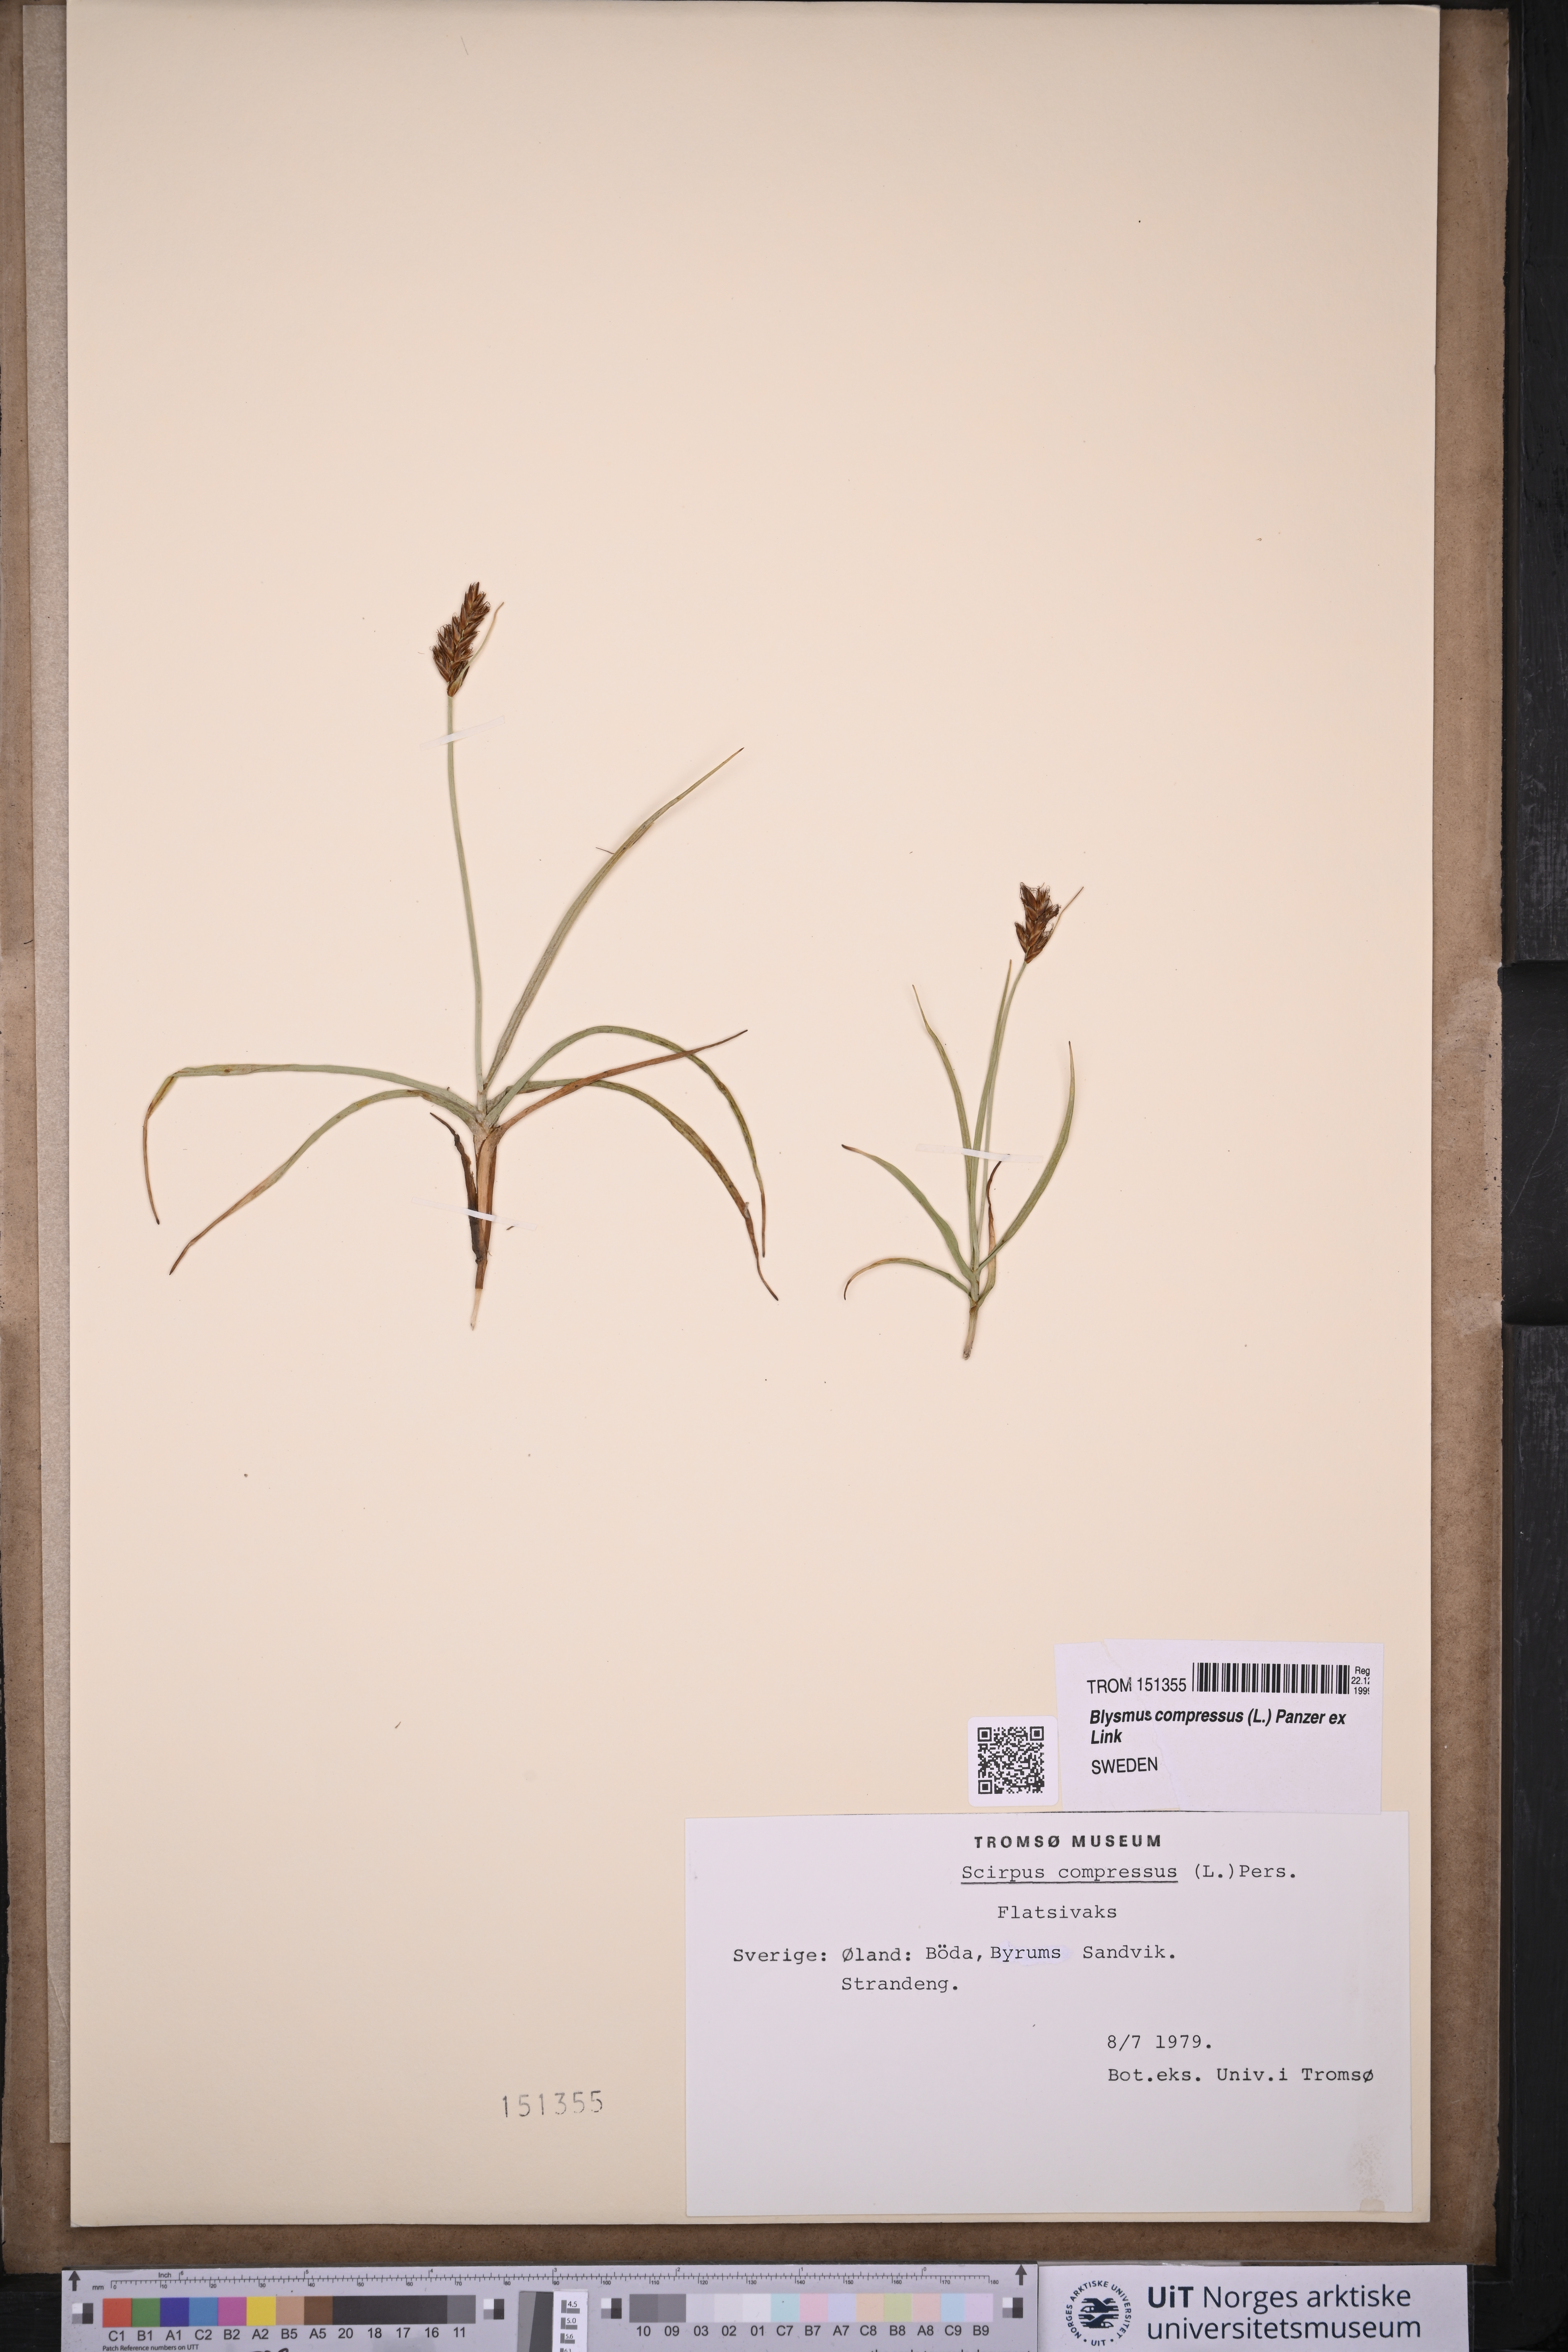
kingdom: Plantae
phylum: Tracheophyta
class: Liliopsida
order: Poales
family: Cyperaceae
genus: Blysmus
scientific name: Blysmus compressus
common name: Flat-sedge
